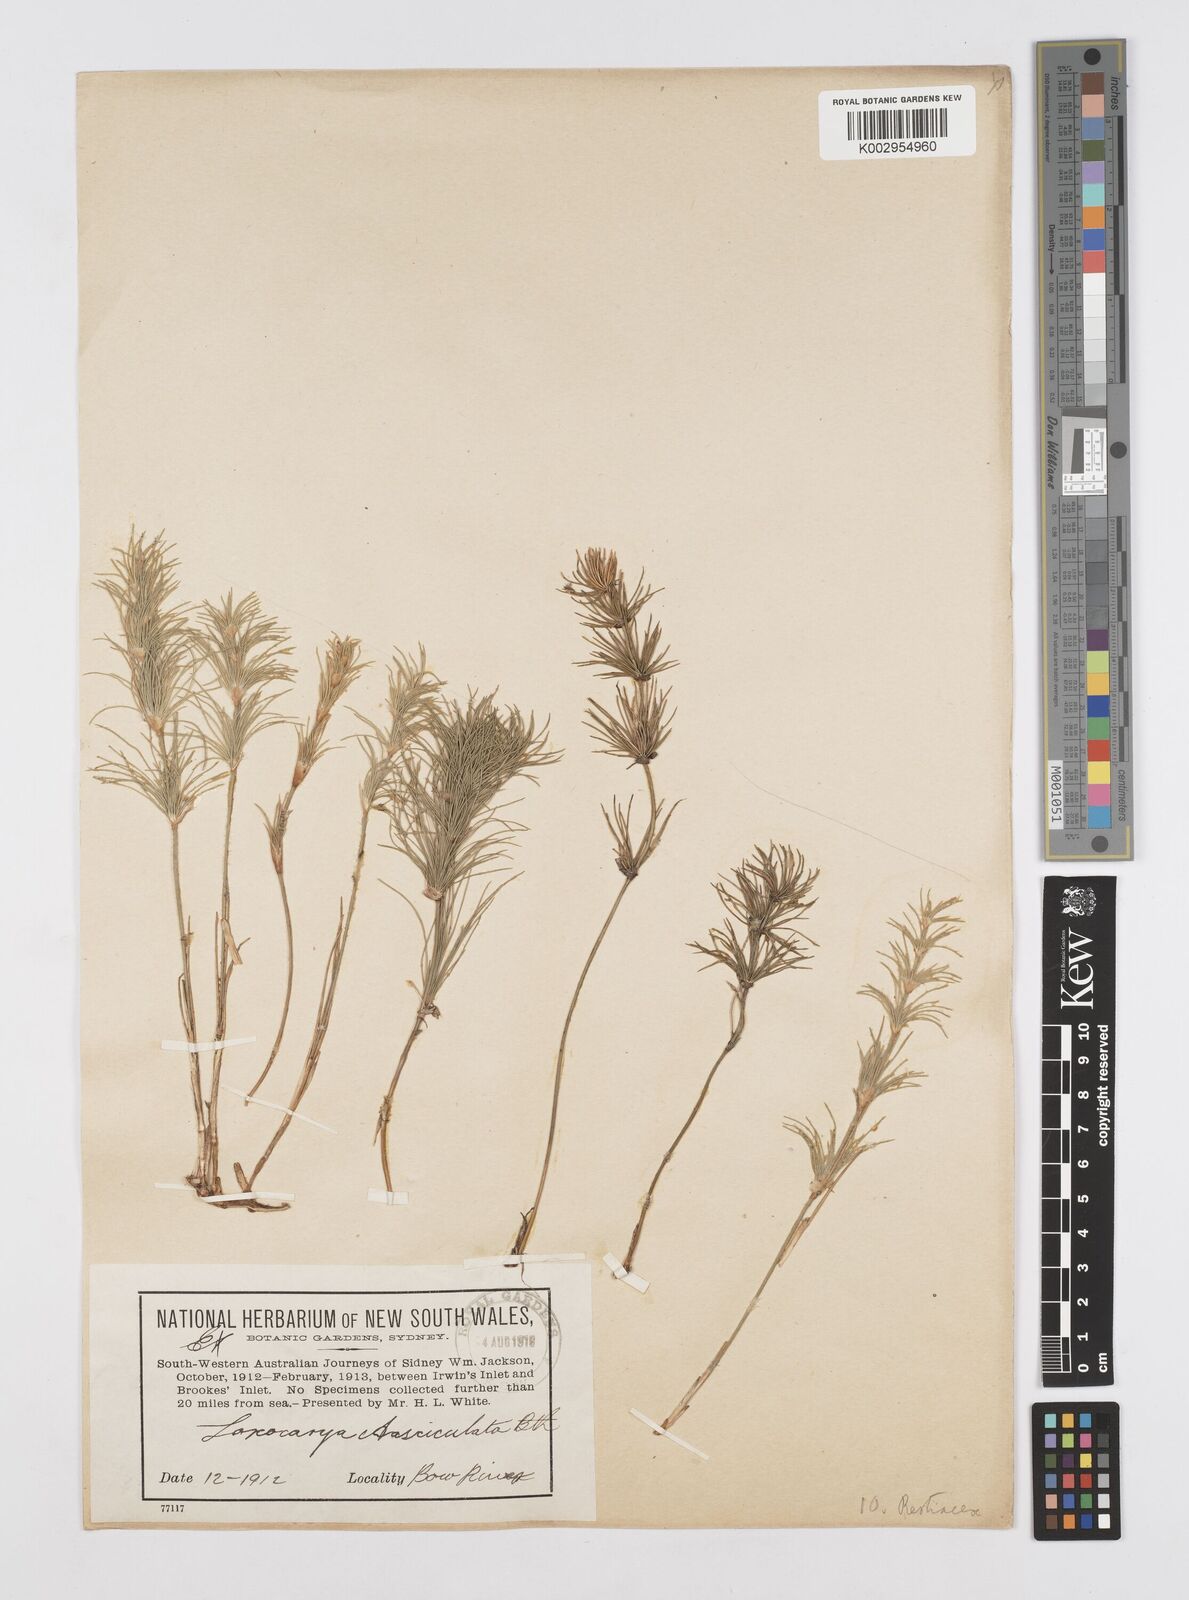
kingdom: Plantae
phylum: Tracheophyta
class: Liliopsida
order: Poales
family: Restionaceae
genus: Desmocladus
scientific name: Desmocladus fasciculatus
